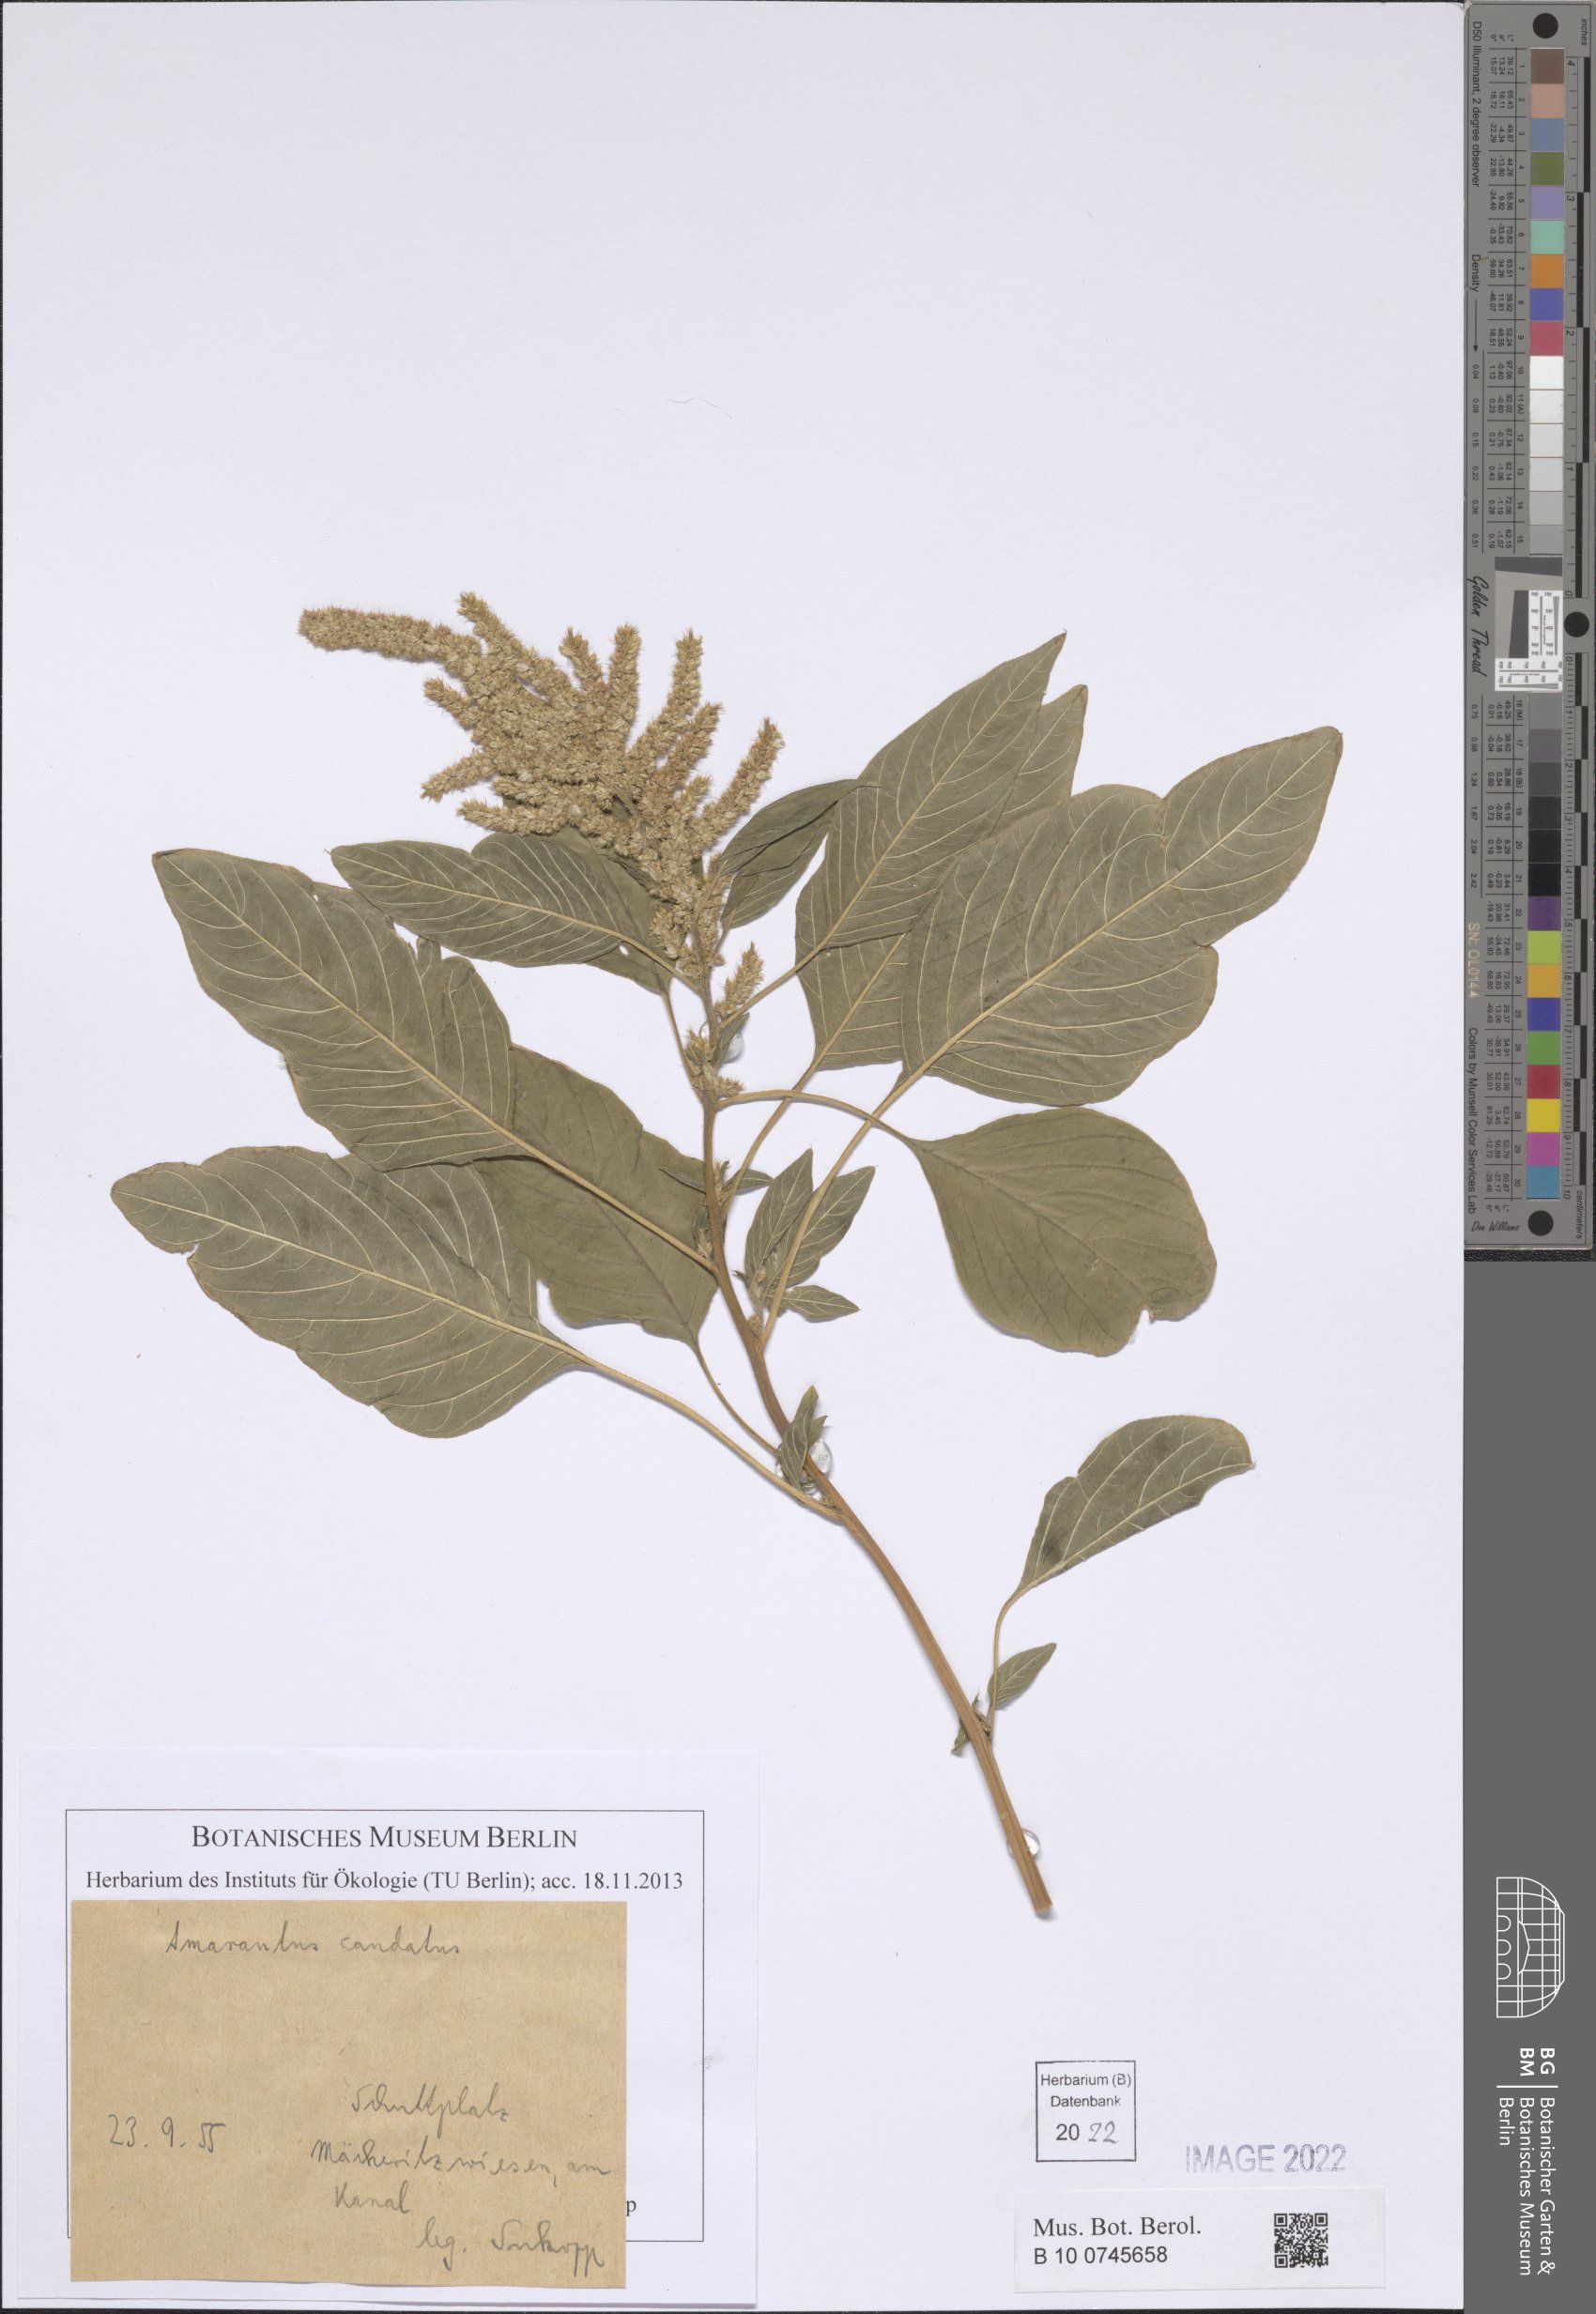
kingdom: Plantae
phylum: Tracheophyta
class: Magnoliopsida
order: Caryophyllales
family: Amaranthaceae
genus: Amaranthus
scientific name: Amaranthus caudatus
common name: Love-lies-bleeding
